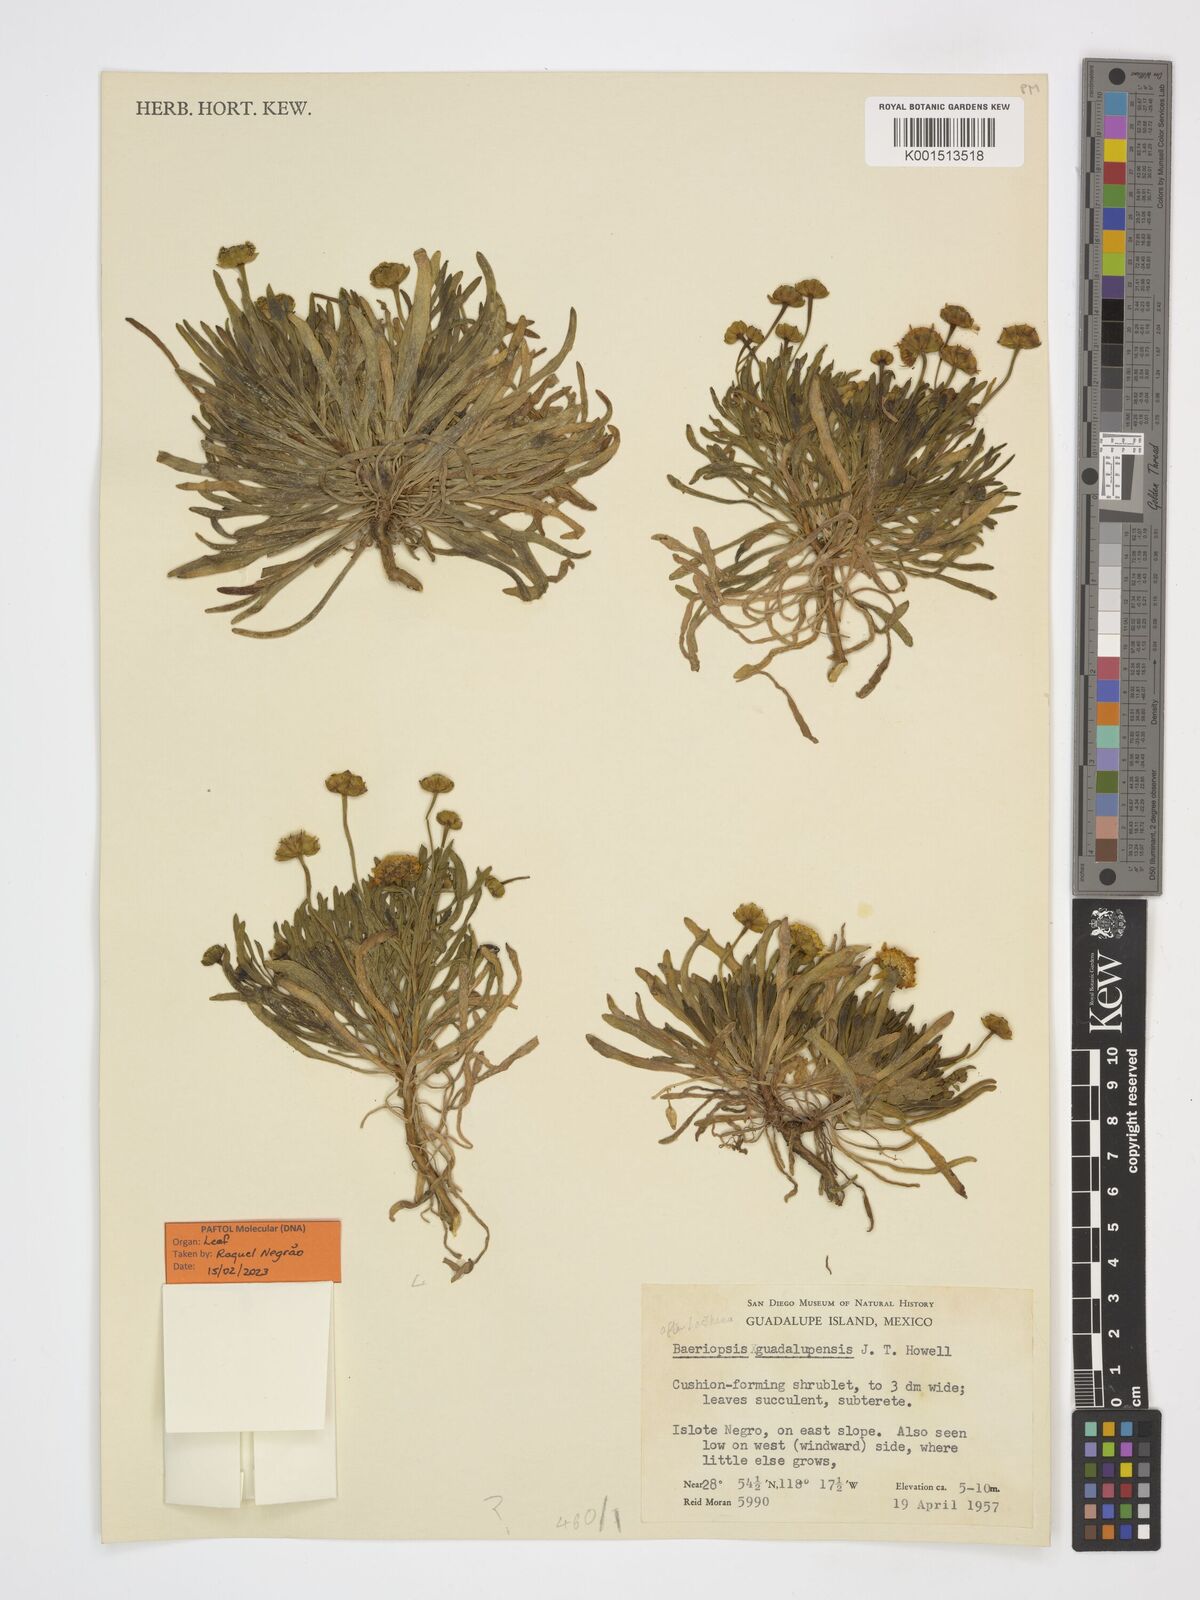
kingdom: Plantae
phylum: Tracheophyta
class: Magnoliopsida
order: Asterales
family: Asteraceae
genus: Baeriopsis
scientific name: Baeriopsis guadalupensis
